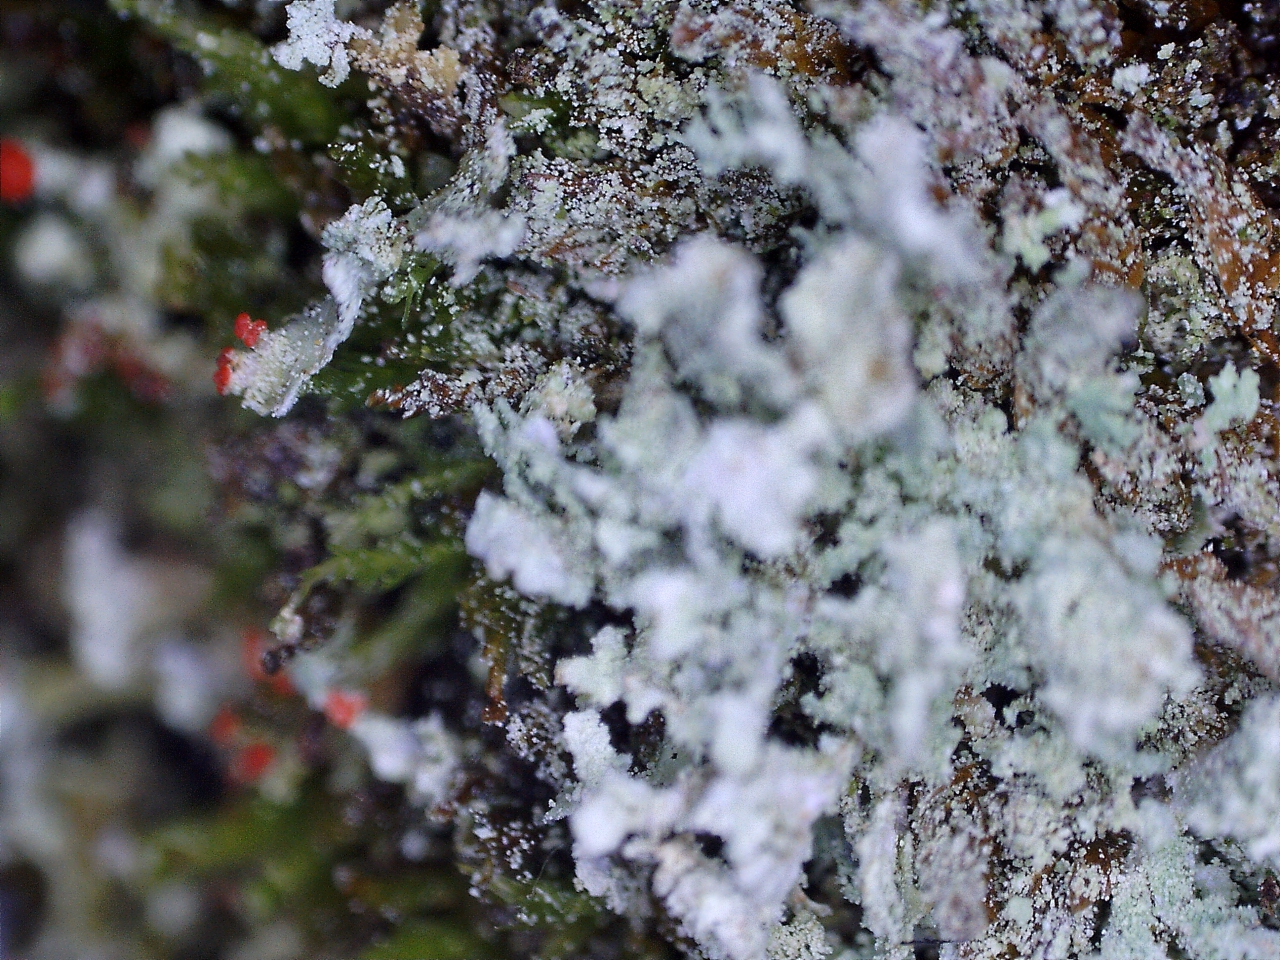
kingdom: Fungi
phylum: Ascomycota
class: Lecanoromycetes
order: Lecanorales
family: Cladoniaceae
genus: Cladonia
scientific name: Cladonia incrassata
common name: tørve-bægerlav
